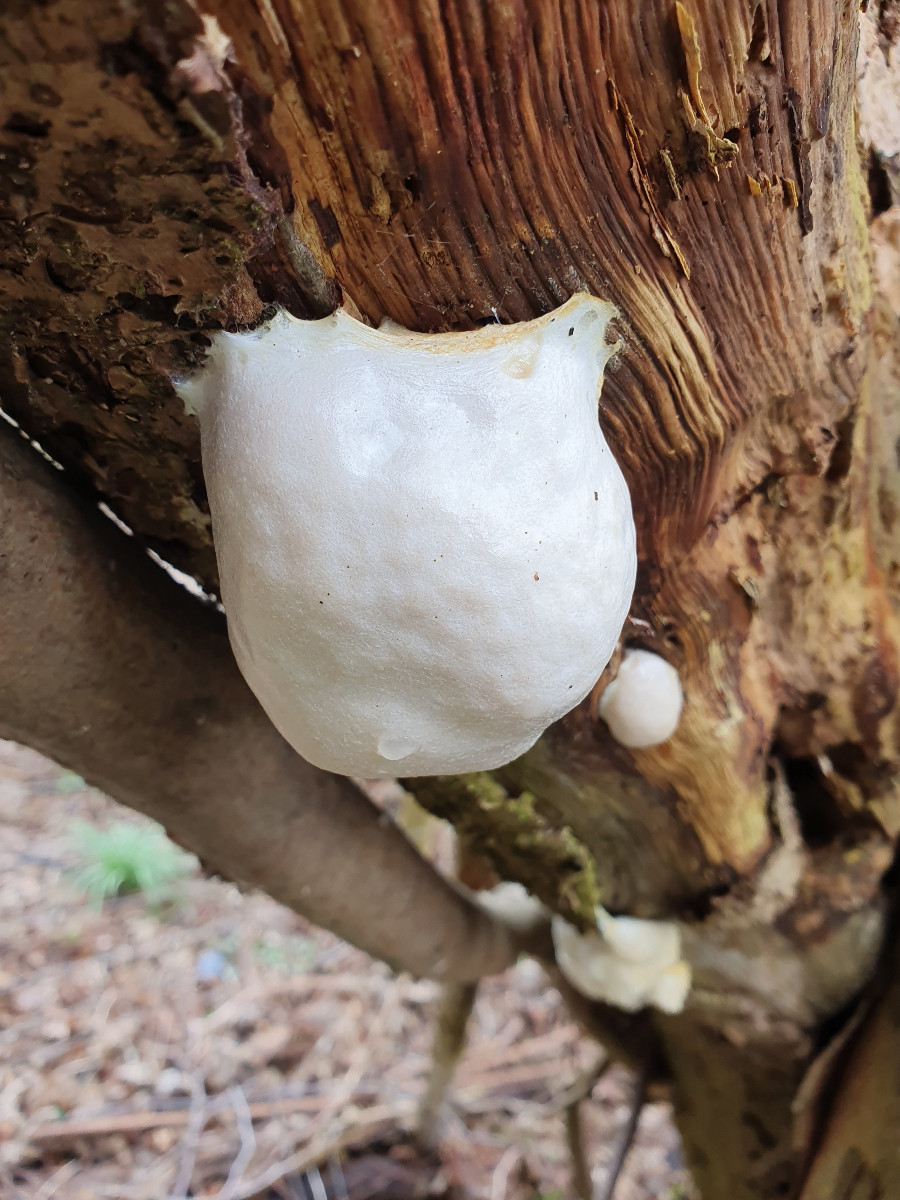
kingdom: Protozoa
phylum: Mycetozoa
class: Myxomycetes
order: Cribrariales
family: Tubiferaceae
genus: Reticularia
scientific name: Reticularia lycoperdon
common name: skinnende støvpude
